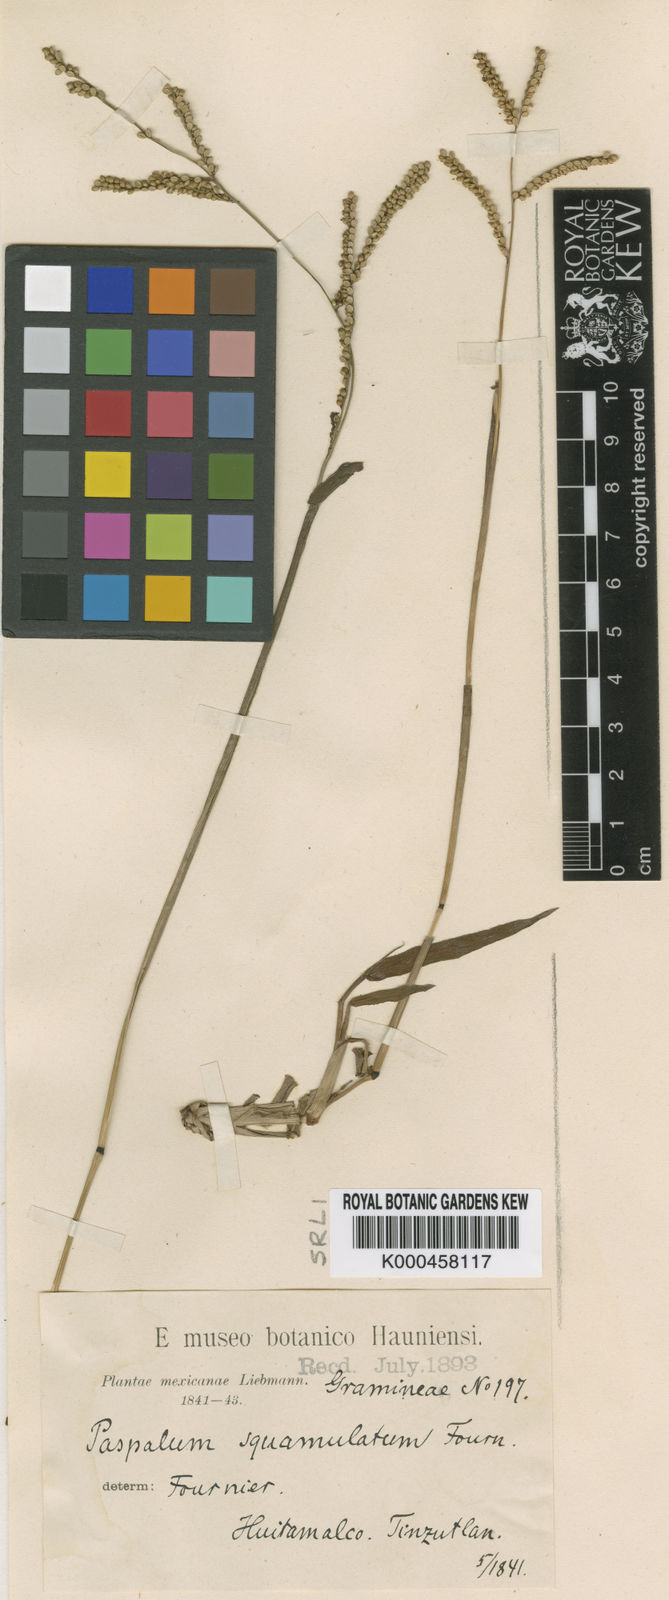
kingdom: Plantae
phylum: Tracheophyta
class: Liliopsida
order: Poales
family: Poaceae
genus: Paspalum
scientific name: Paspalum
